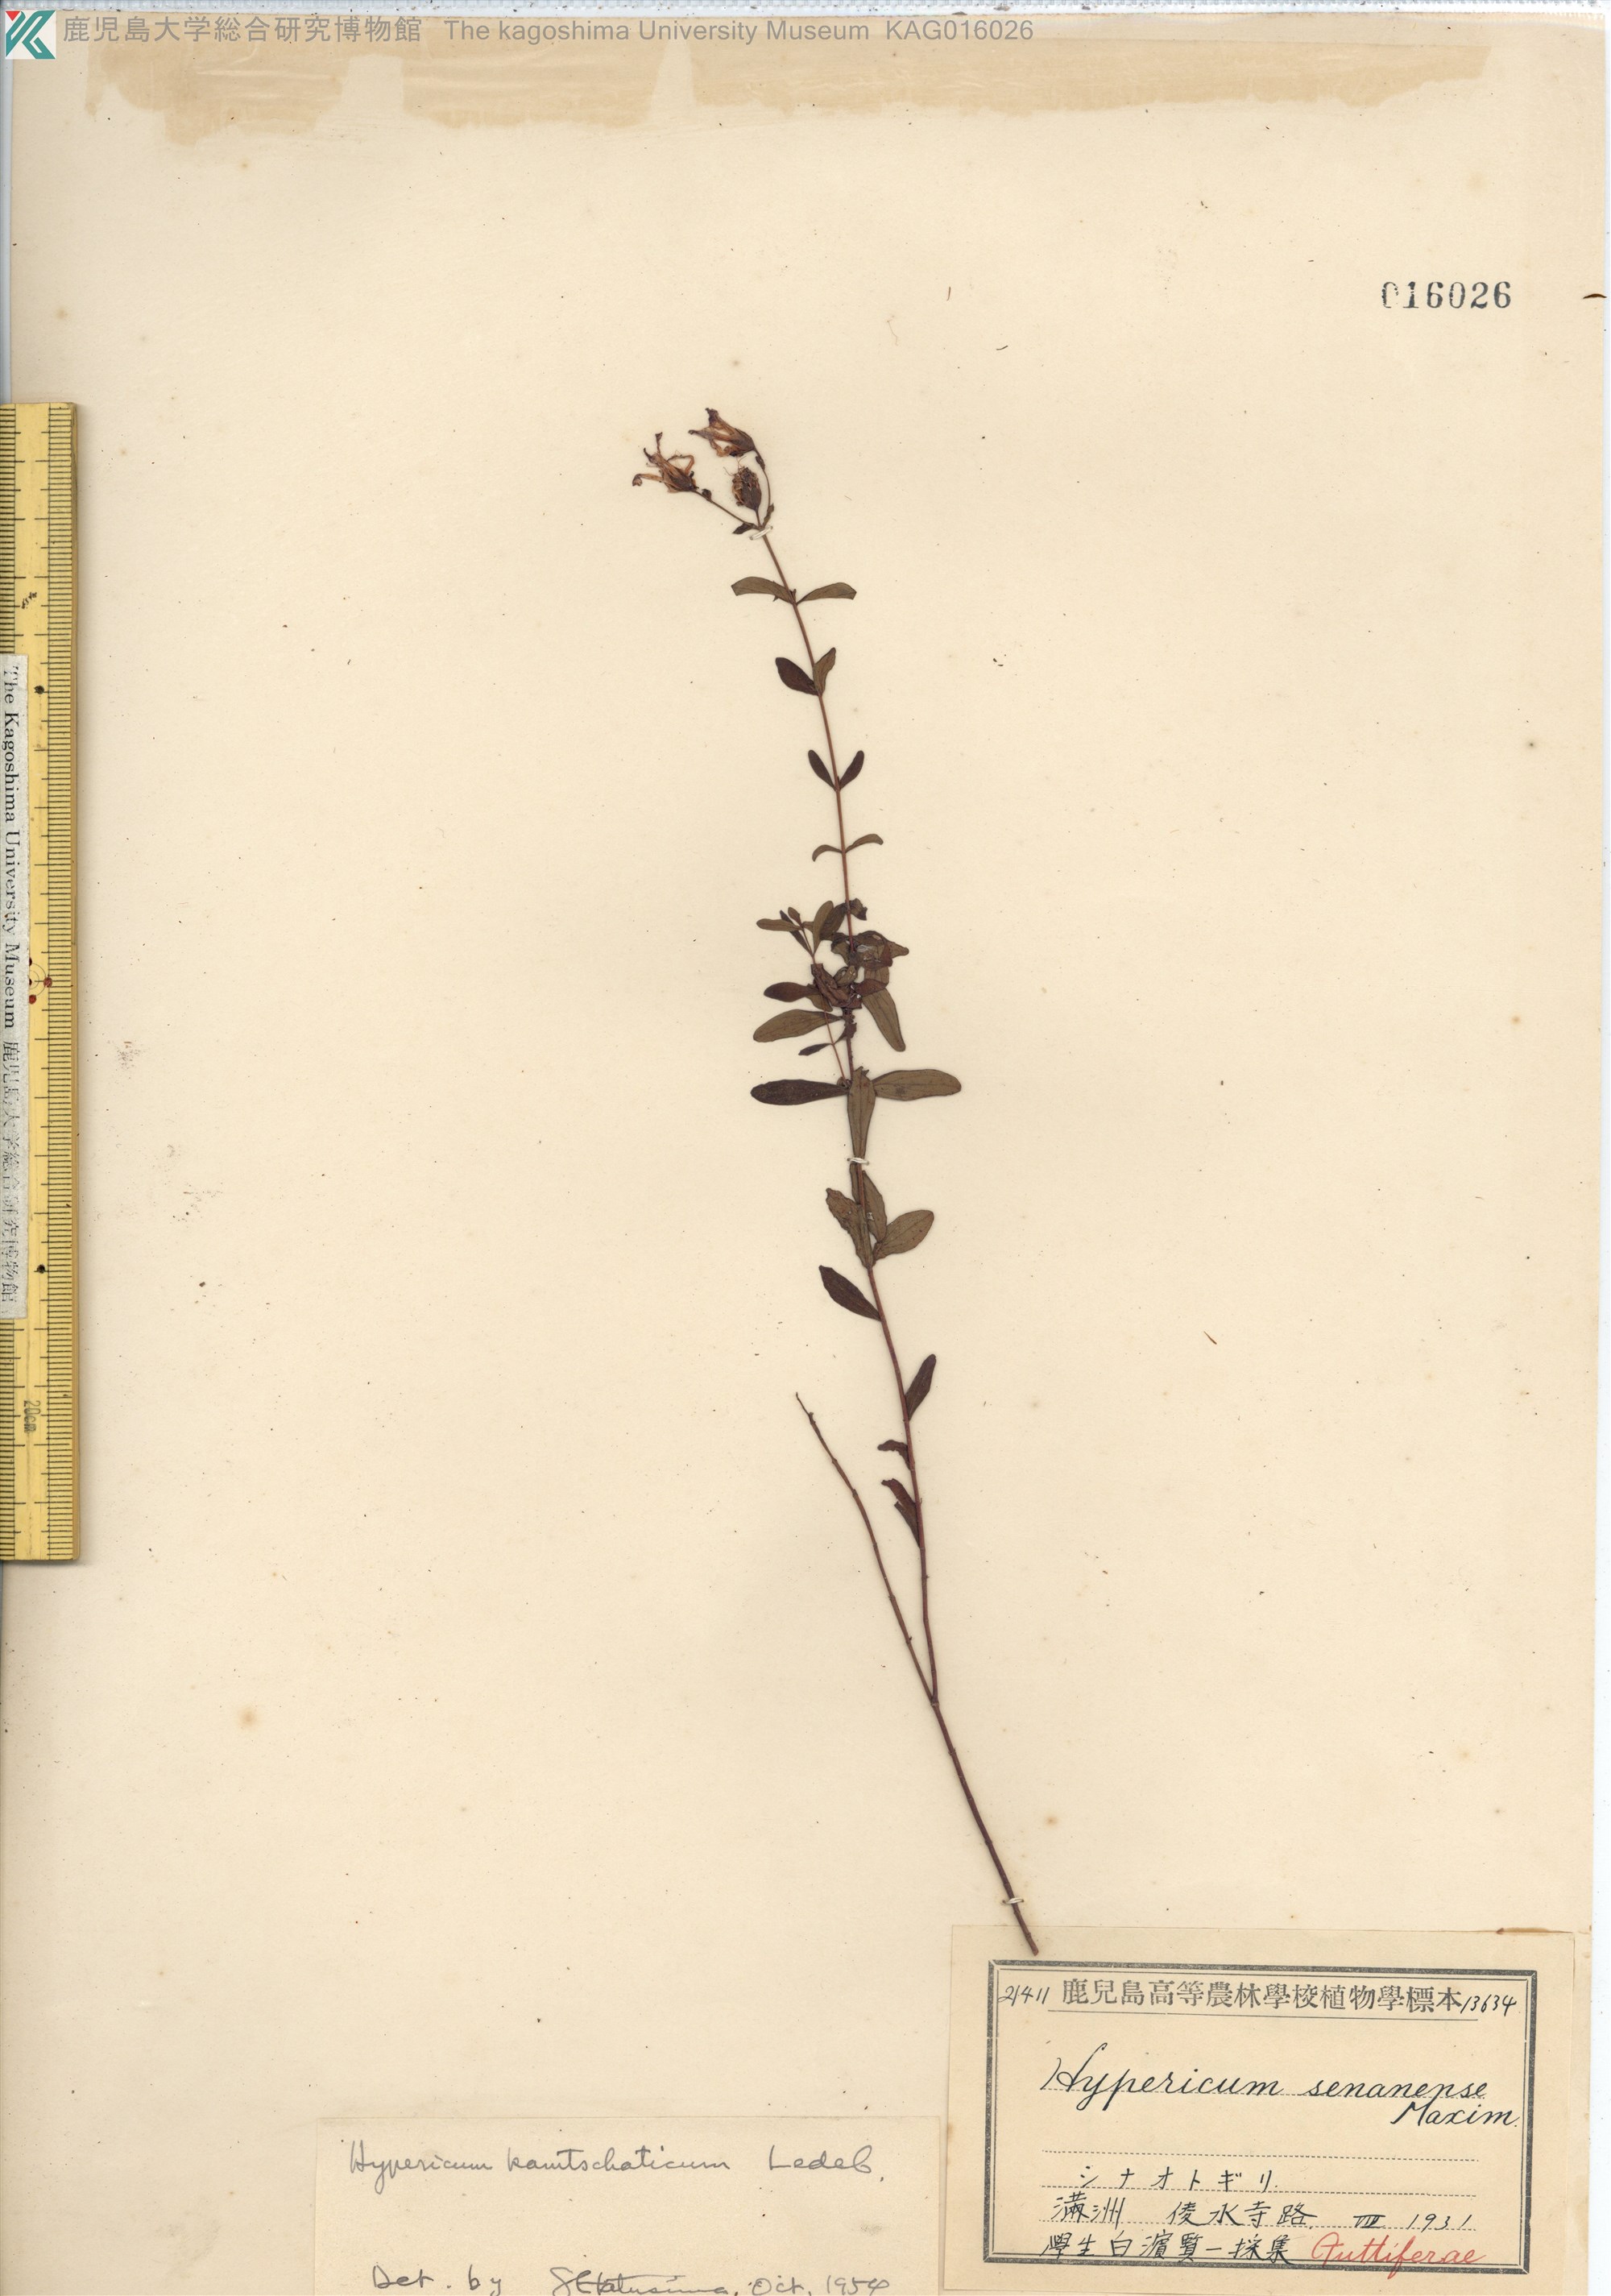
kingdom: Plantae
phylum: Tracheophyta
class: Magnoliopsida
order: Malpighiales
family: Hypericaceae
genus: Hypericum
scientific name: Hypericum kamtschaticum
